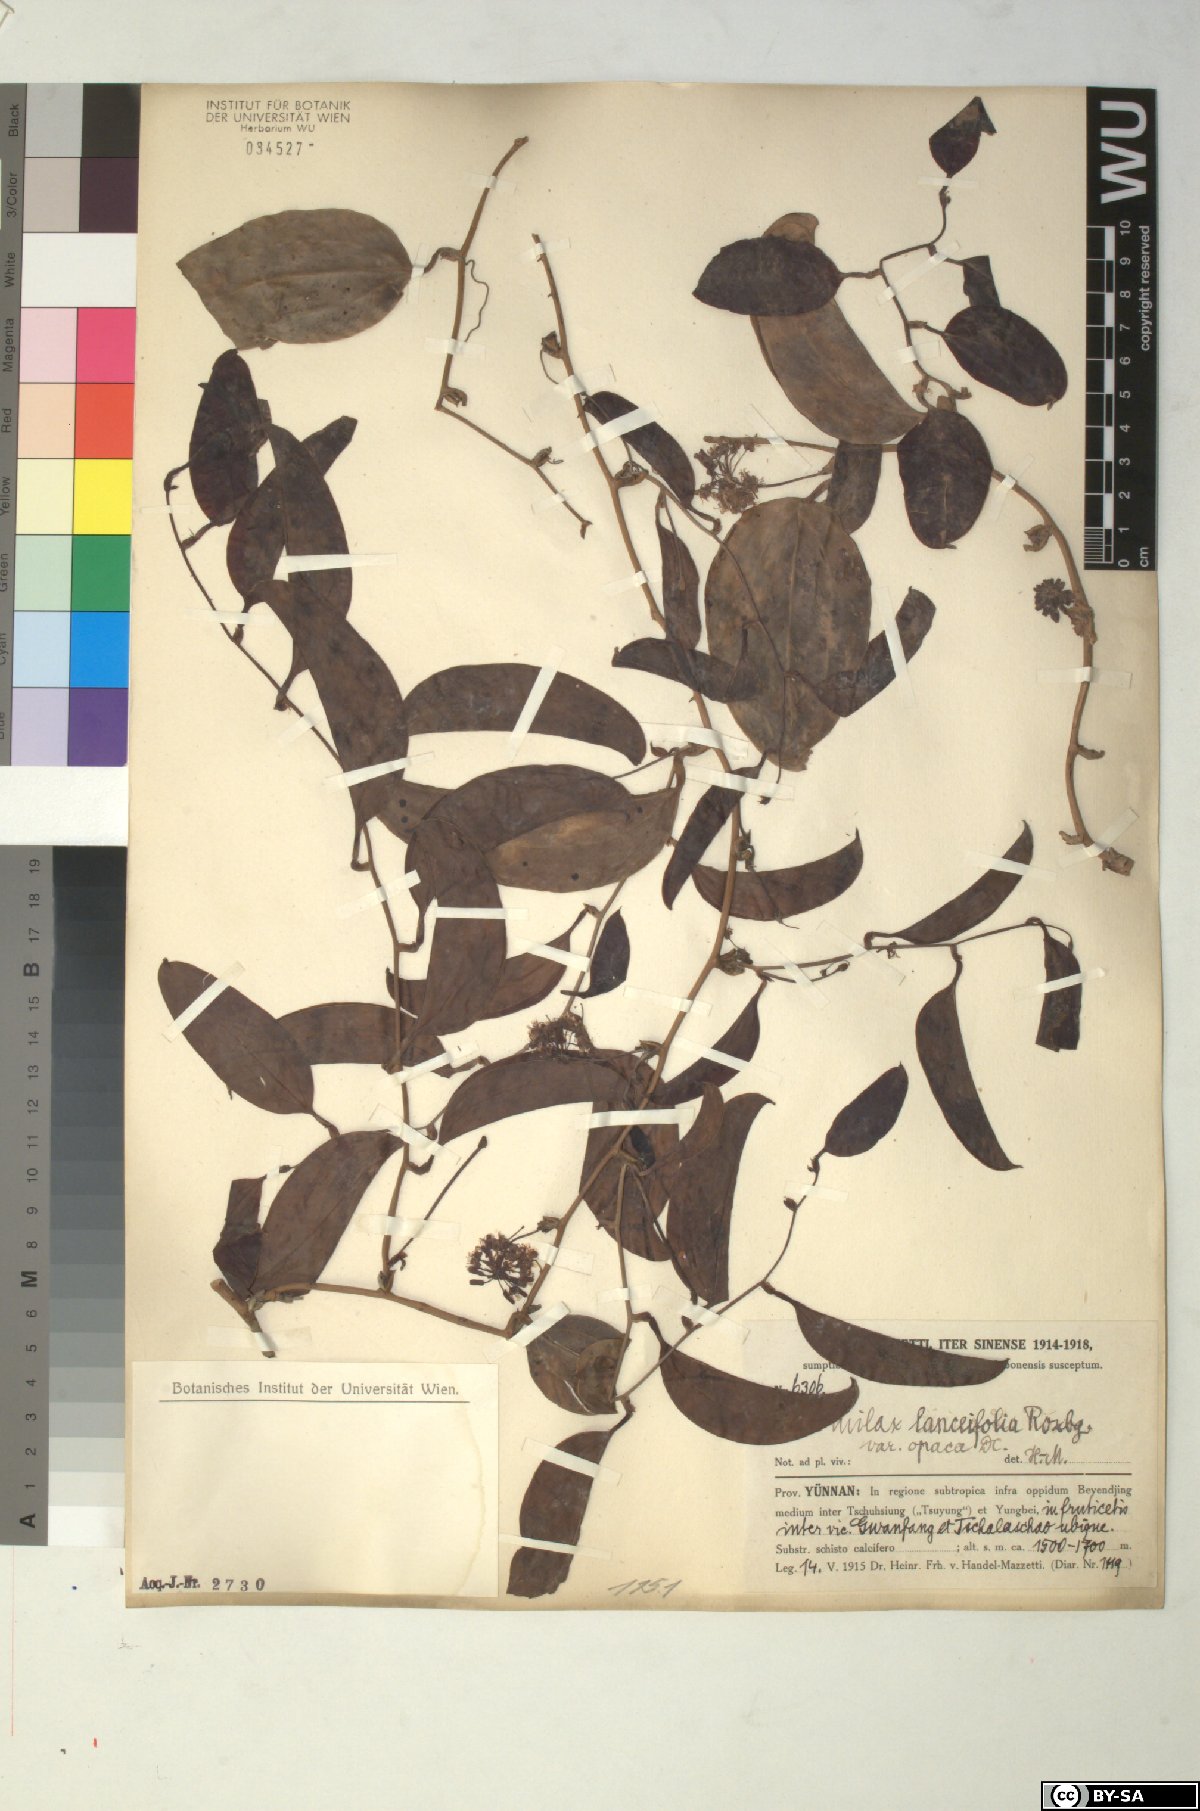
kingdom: Plantae
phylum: Tracheophyta
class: Liliopsida
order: Liliales
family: Smilacaceae
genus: Smilax
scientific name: Smilax laevis
